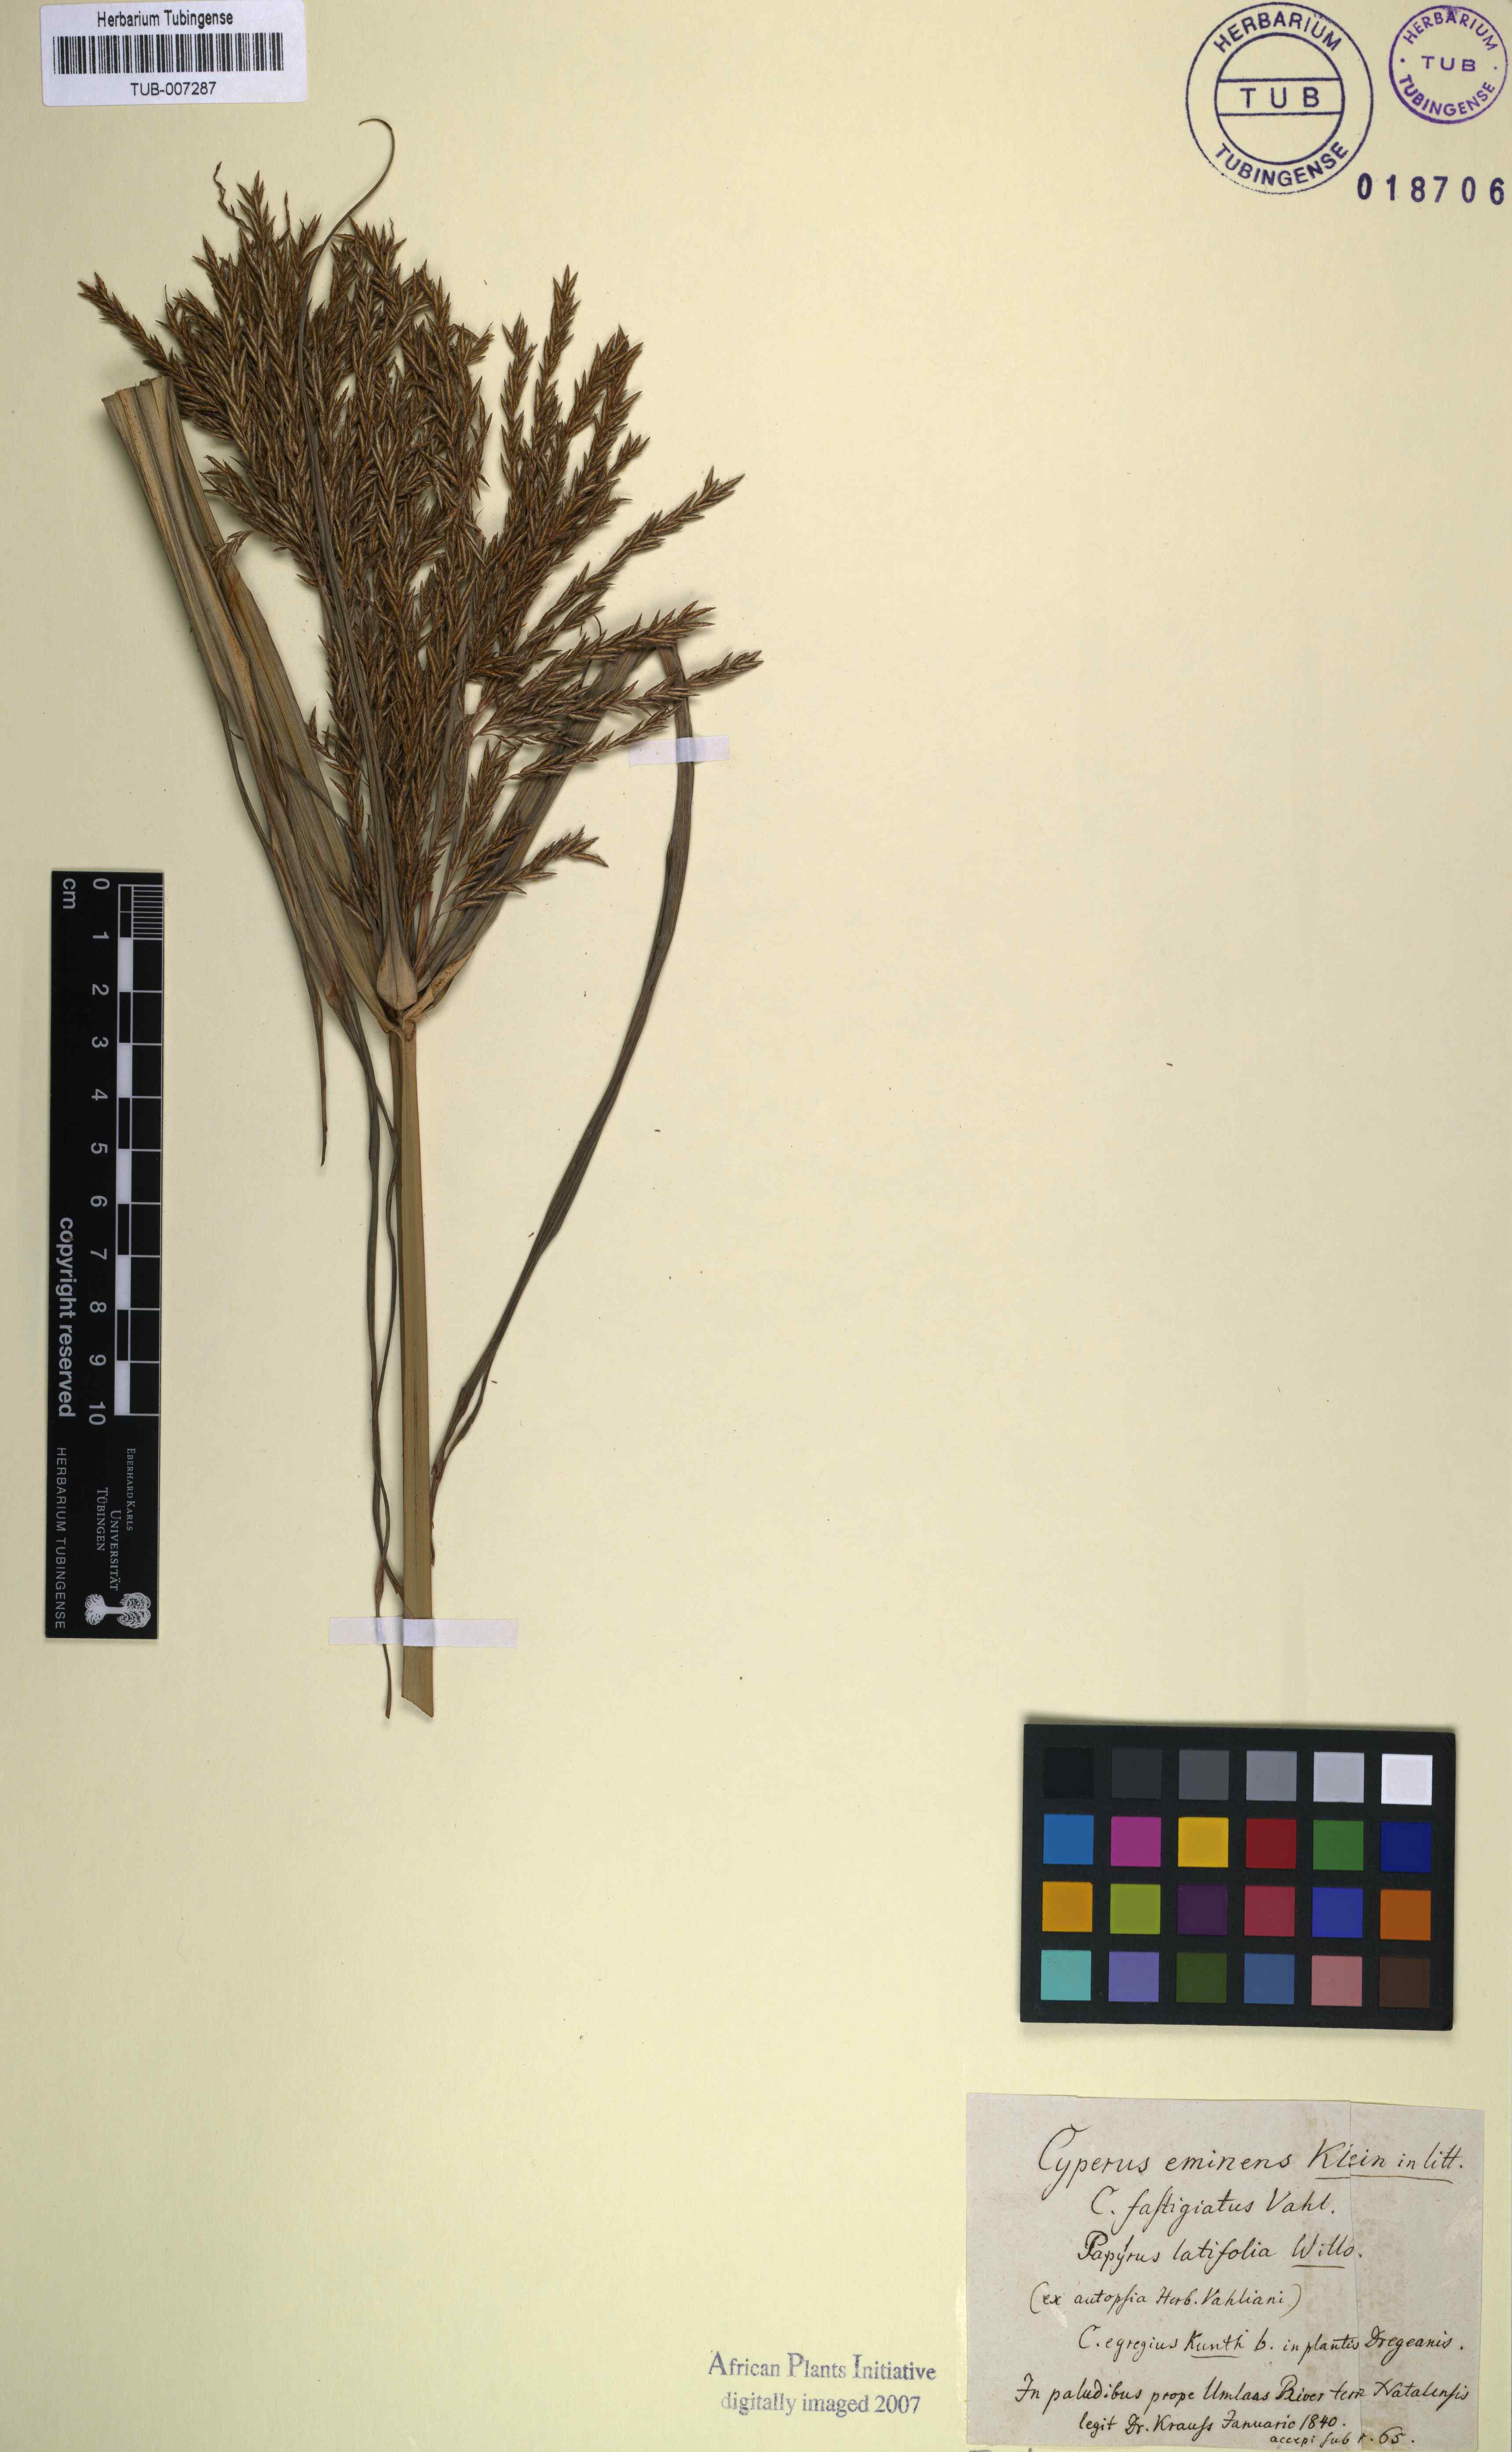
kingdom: Plantae
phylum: Tracheophyta
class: Liliopsida
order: Poales
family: Cyperaceae
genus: Cyperus
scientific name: Cyperus platyphyllus
